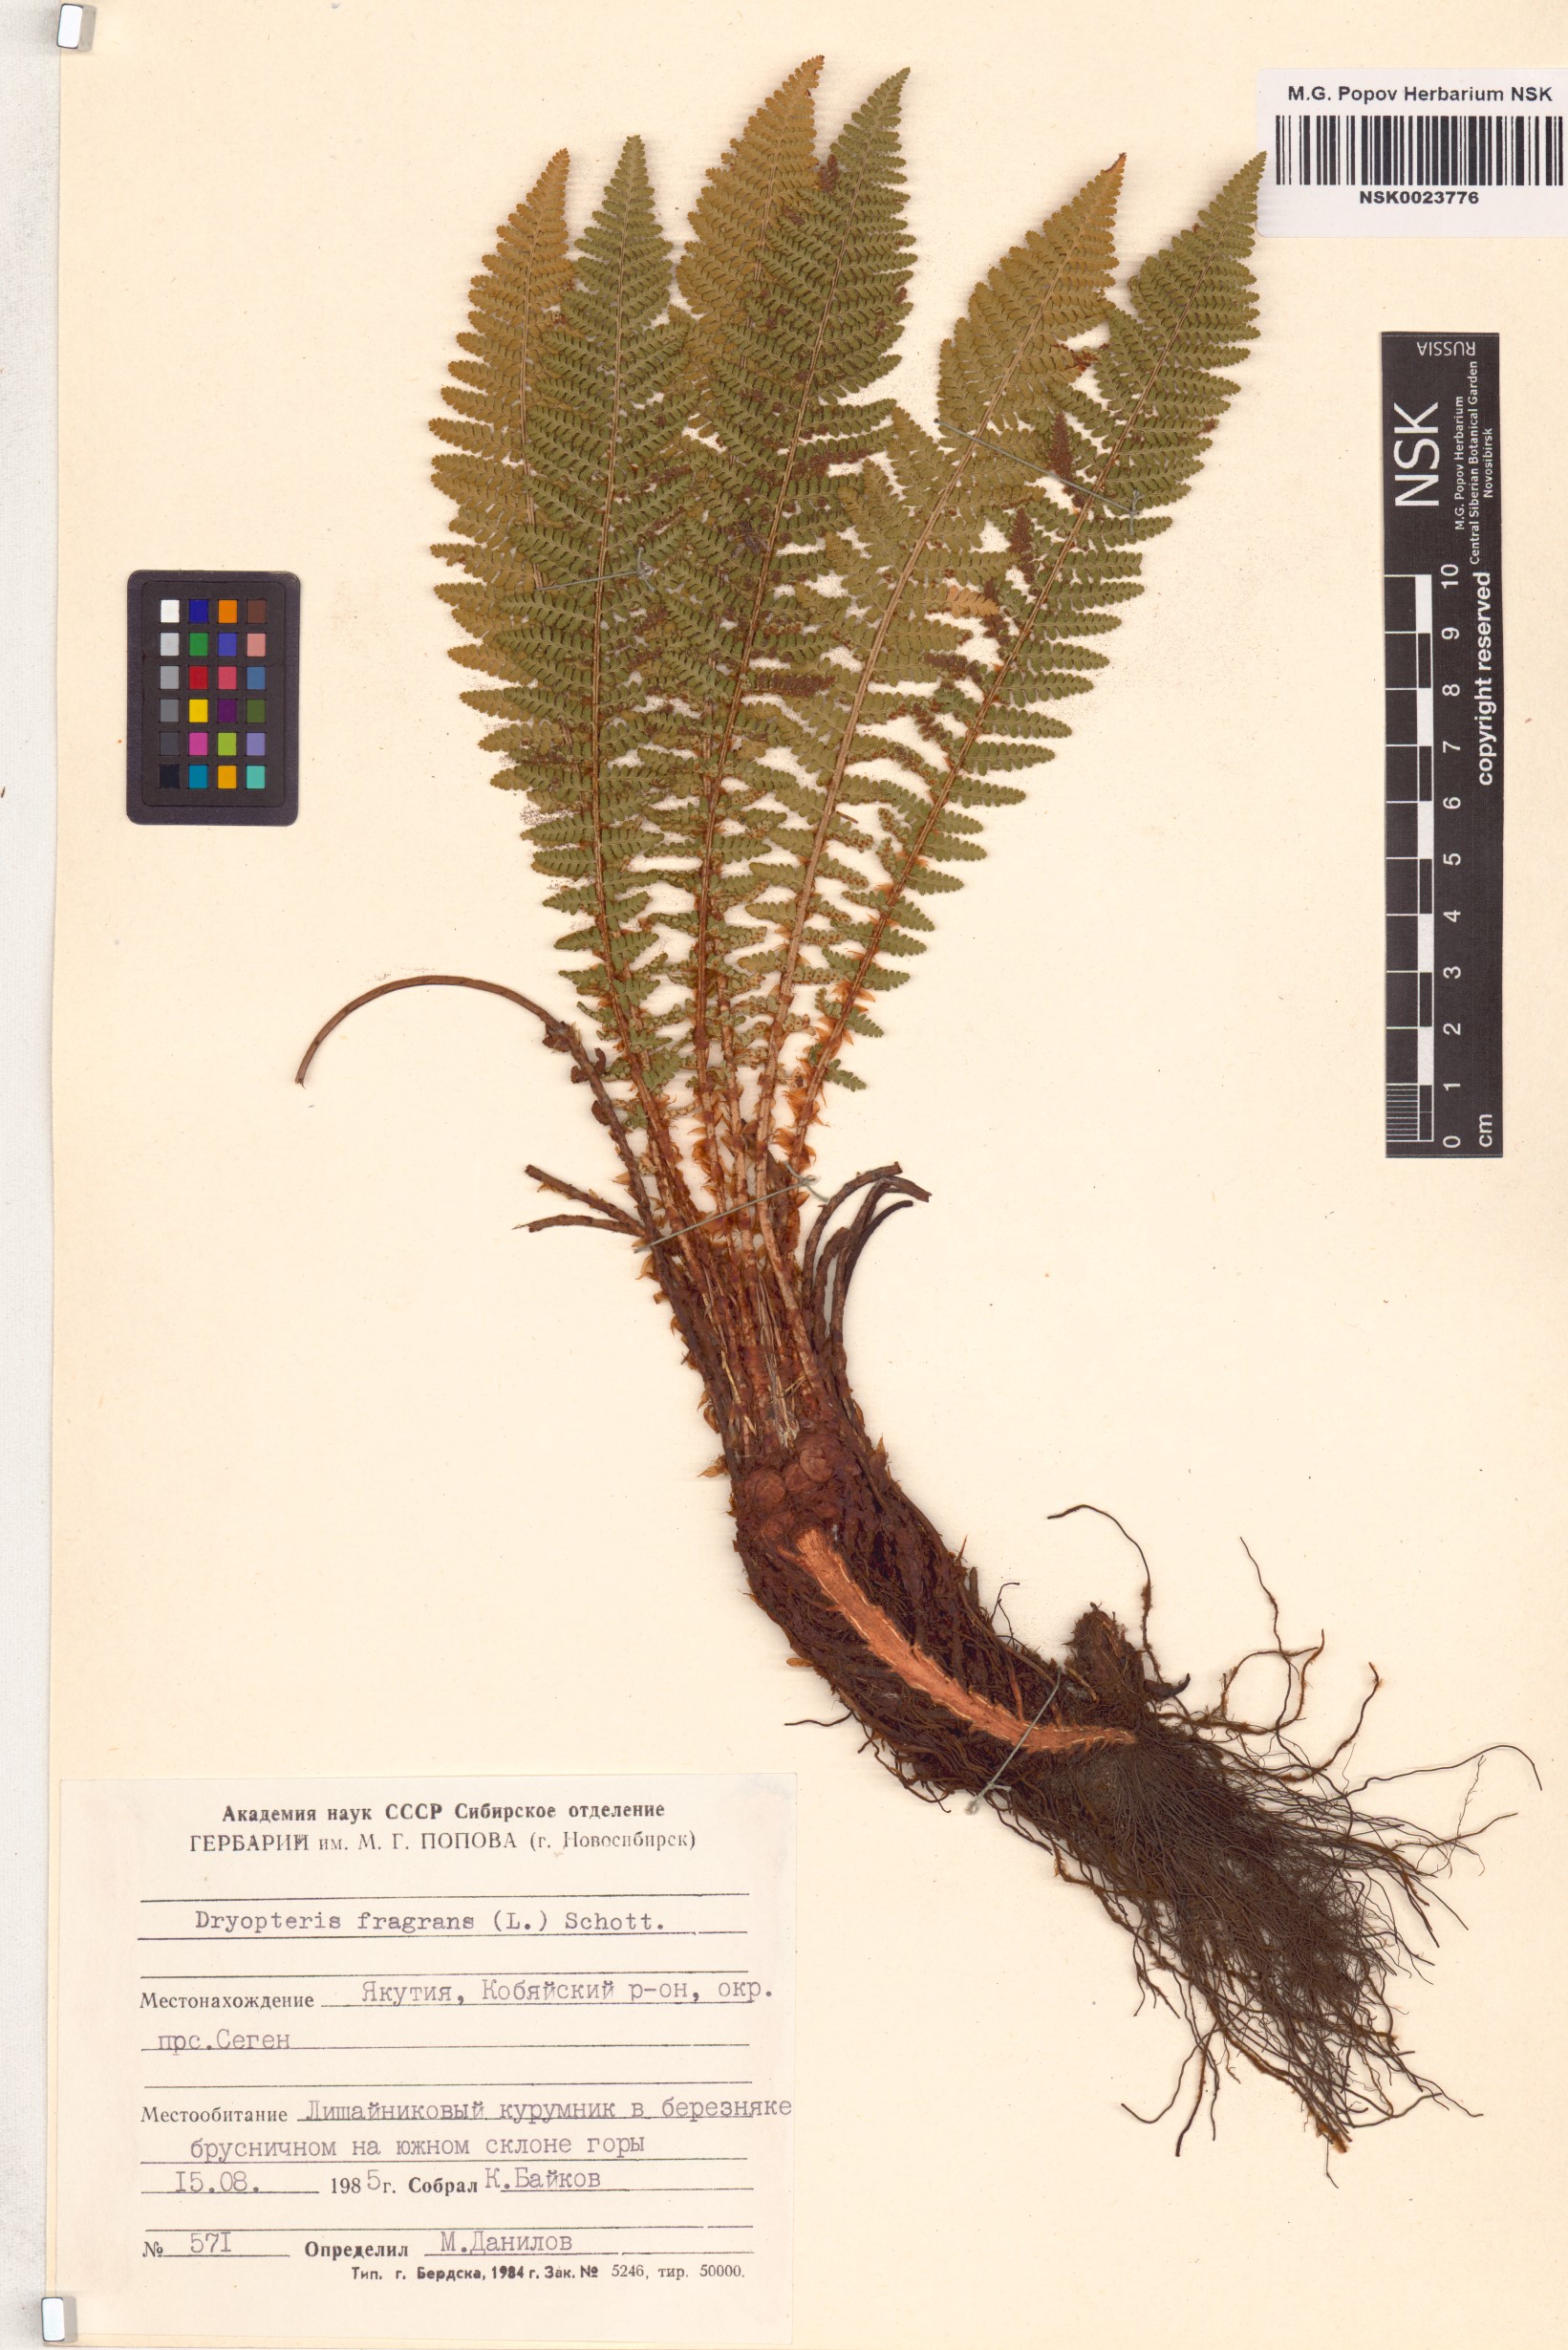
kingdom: Plantae
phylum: Tracheophyta
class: Polypodiopsida
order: Polypodiales
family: Dryopteridaceae
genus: Dryopteris
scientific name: Dryopteris fragrans
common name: Fragrant wood fern
